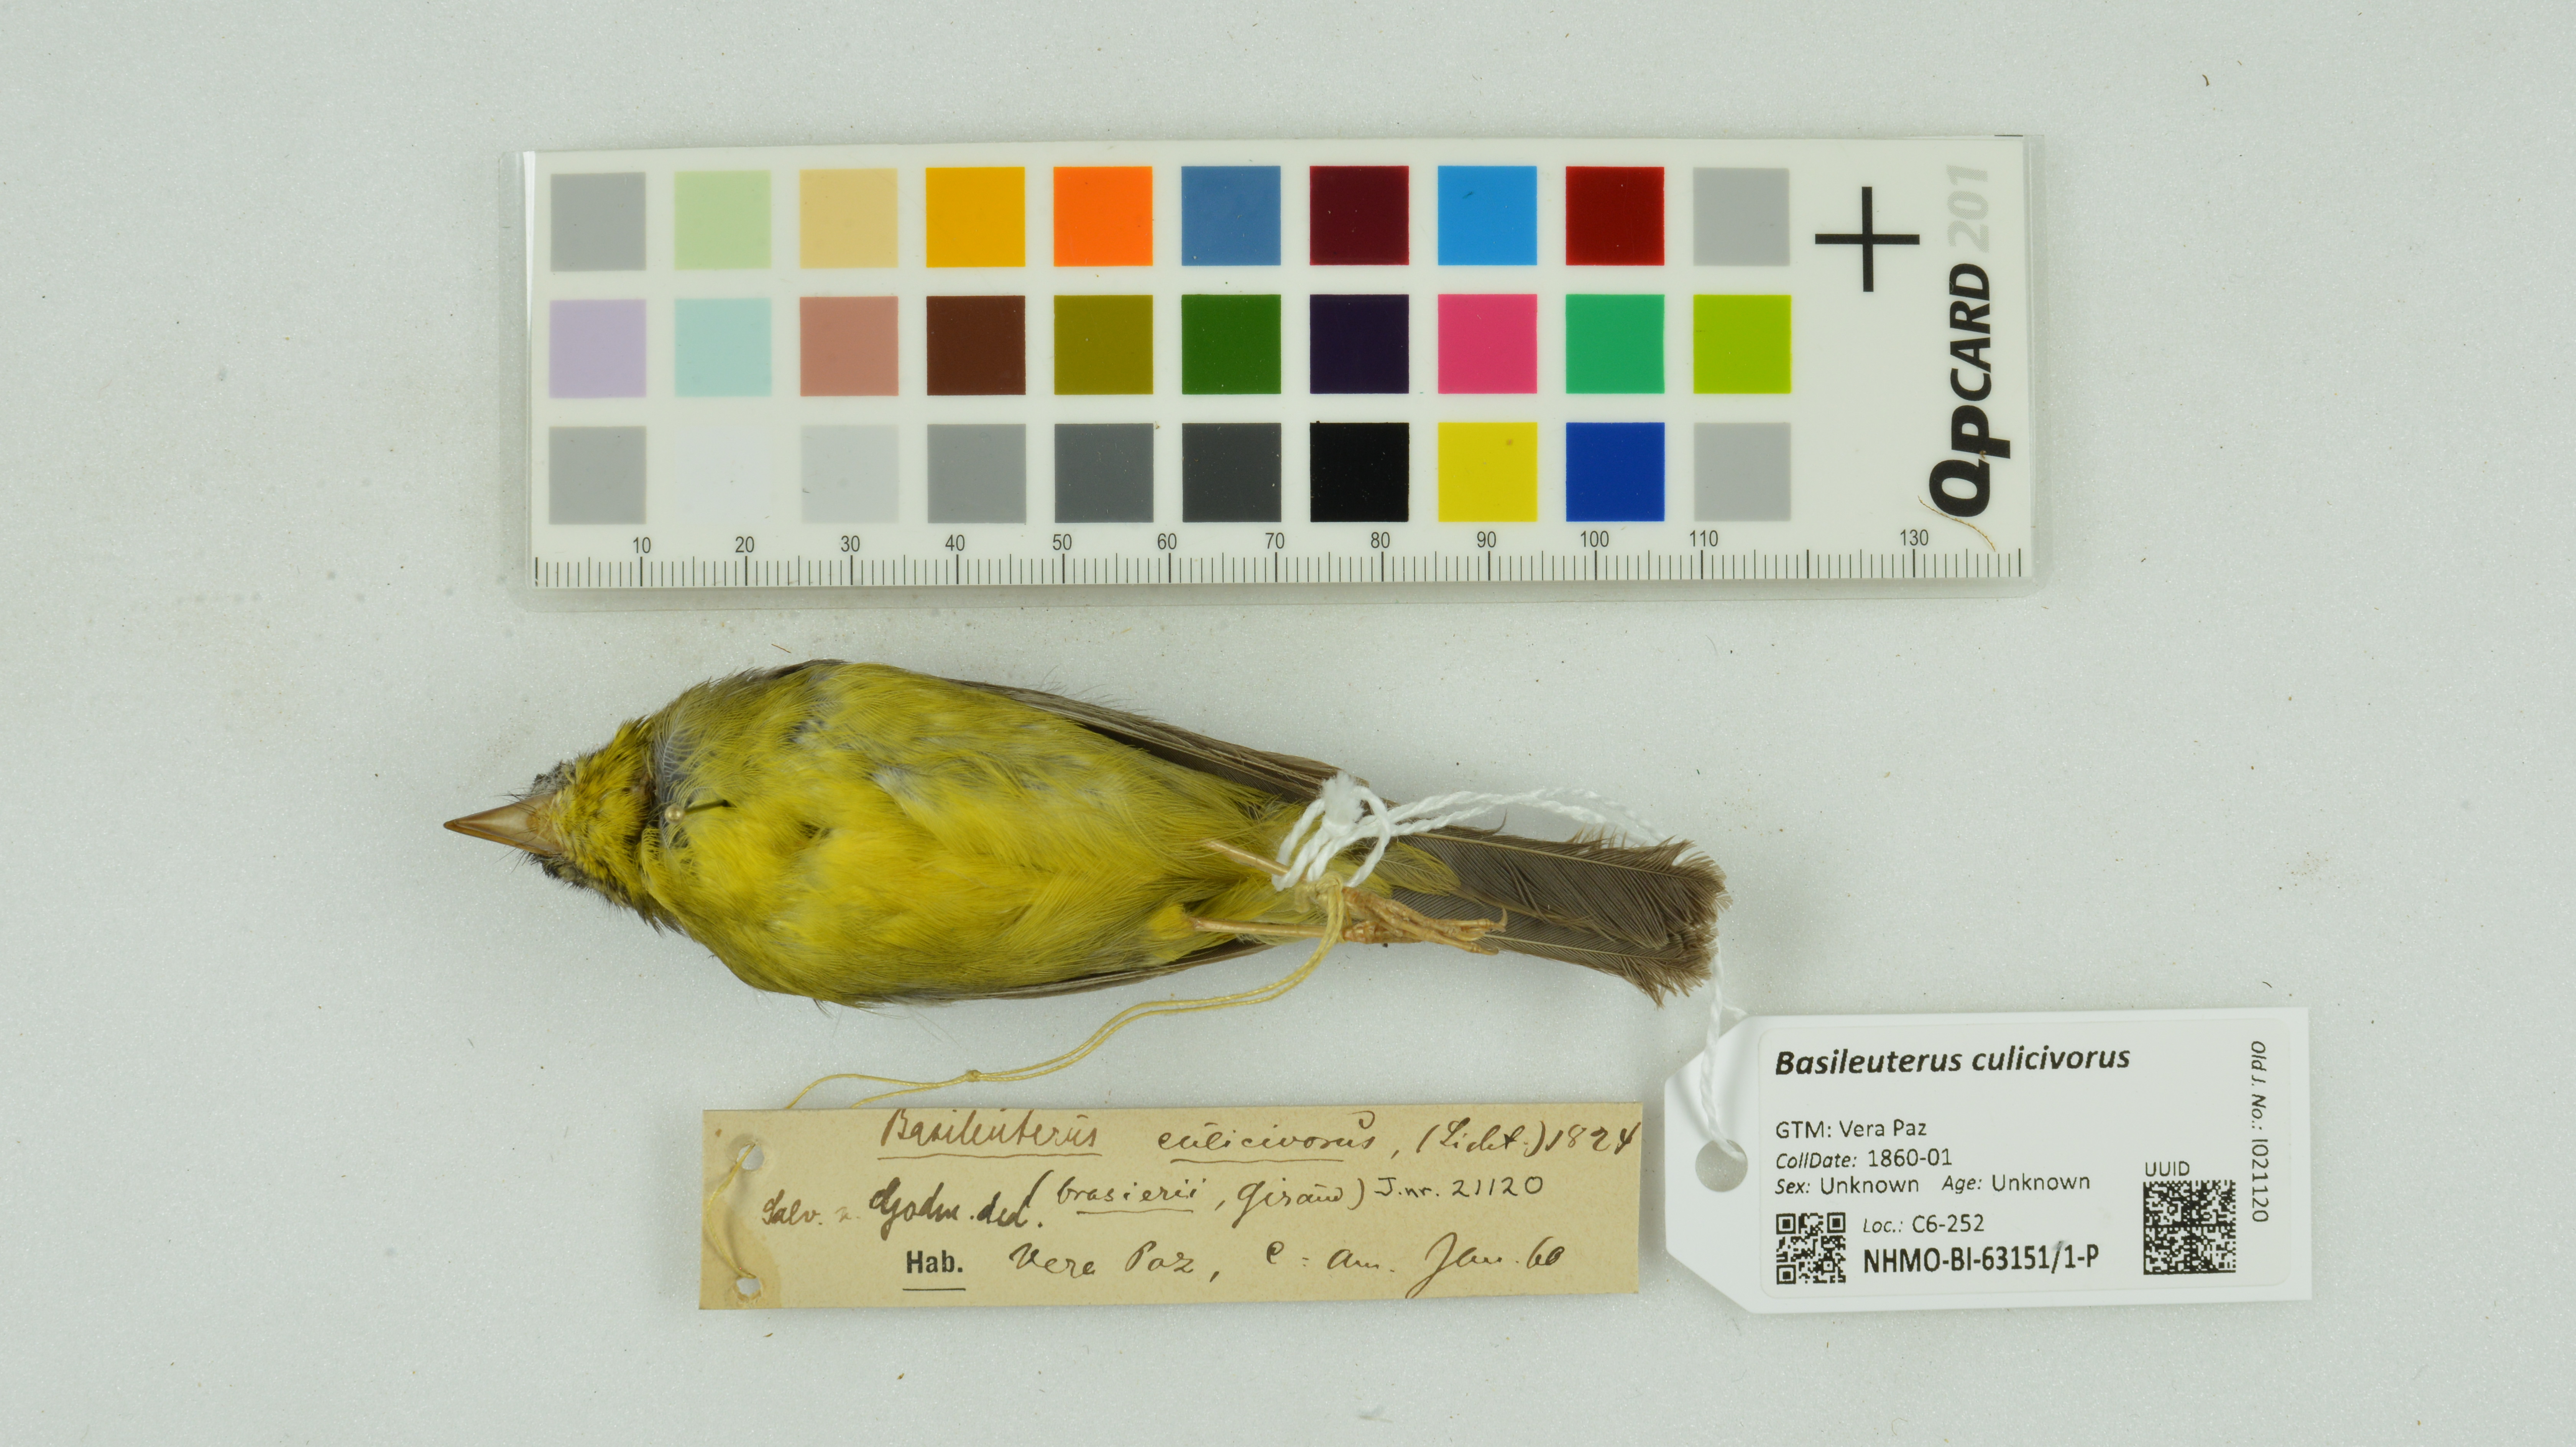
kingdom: Animalia
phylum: Chordata
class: Aves
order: Passeriformes
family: Parulidae
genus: Basileuterus
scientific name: Basileuterus culicivorus
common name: Golden-crowned warbler
